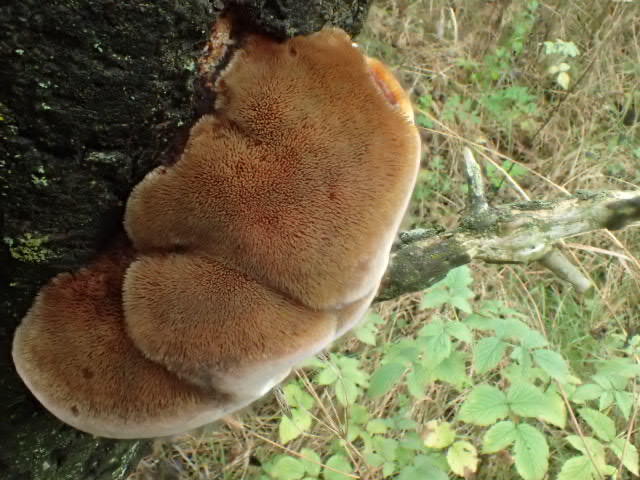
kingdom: Fungi
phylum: Basidiomycota
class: Agaricomycetes
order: Hymenochaetales
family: Hymenochaetaceae
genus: Inocutis
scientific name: Inocutis rheades
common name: ræve-spejlporesvamp
